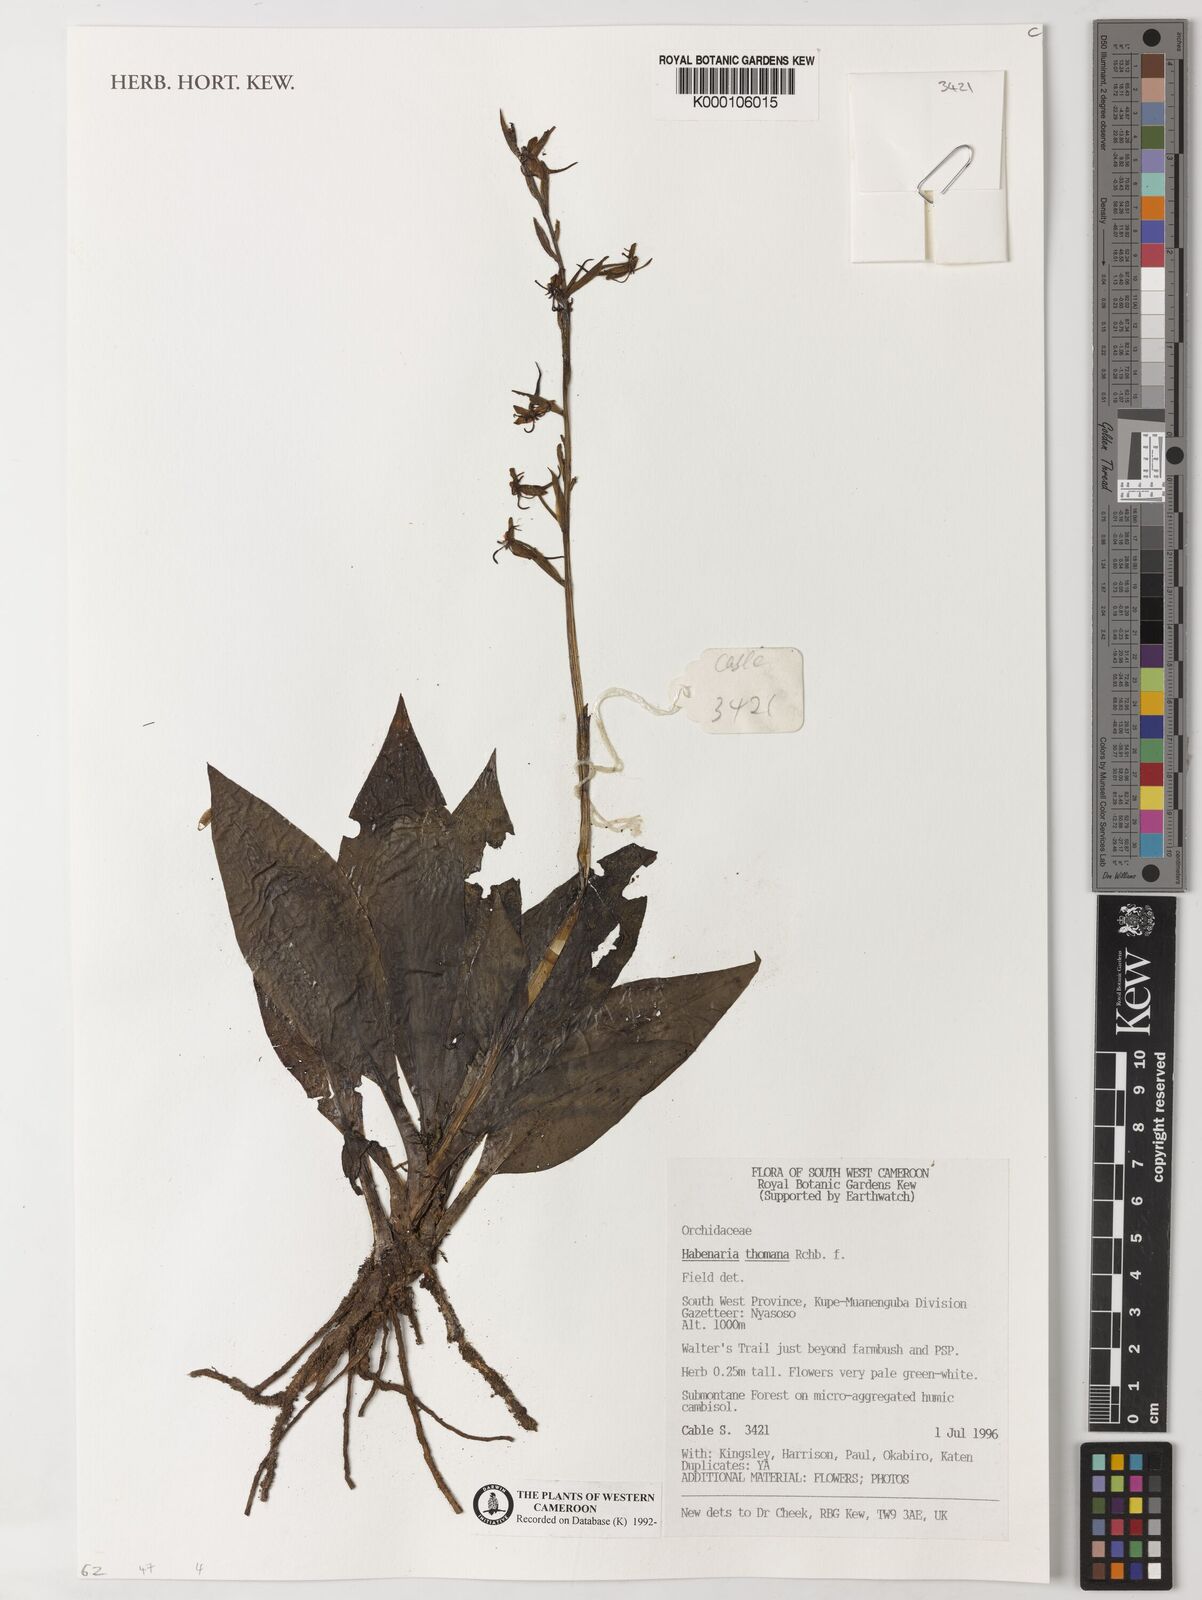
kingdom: Plantae
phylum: Tracheophyta
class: Liliopsida
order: Asparagales
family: Orchidaceae
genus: Habenaria
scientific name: Habenaria thomana
